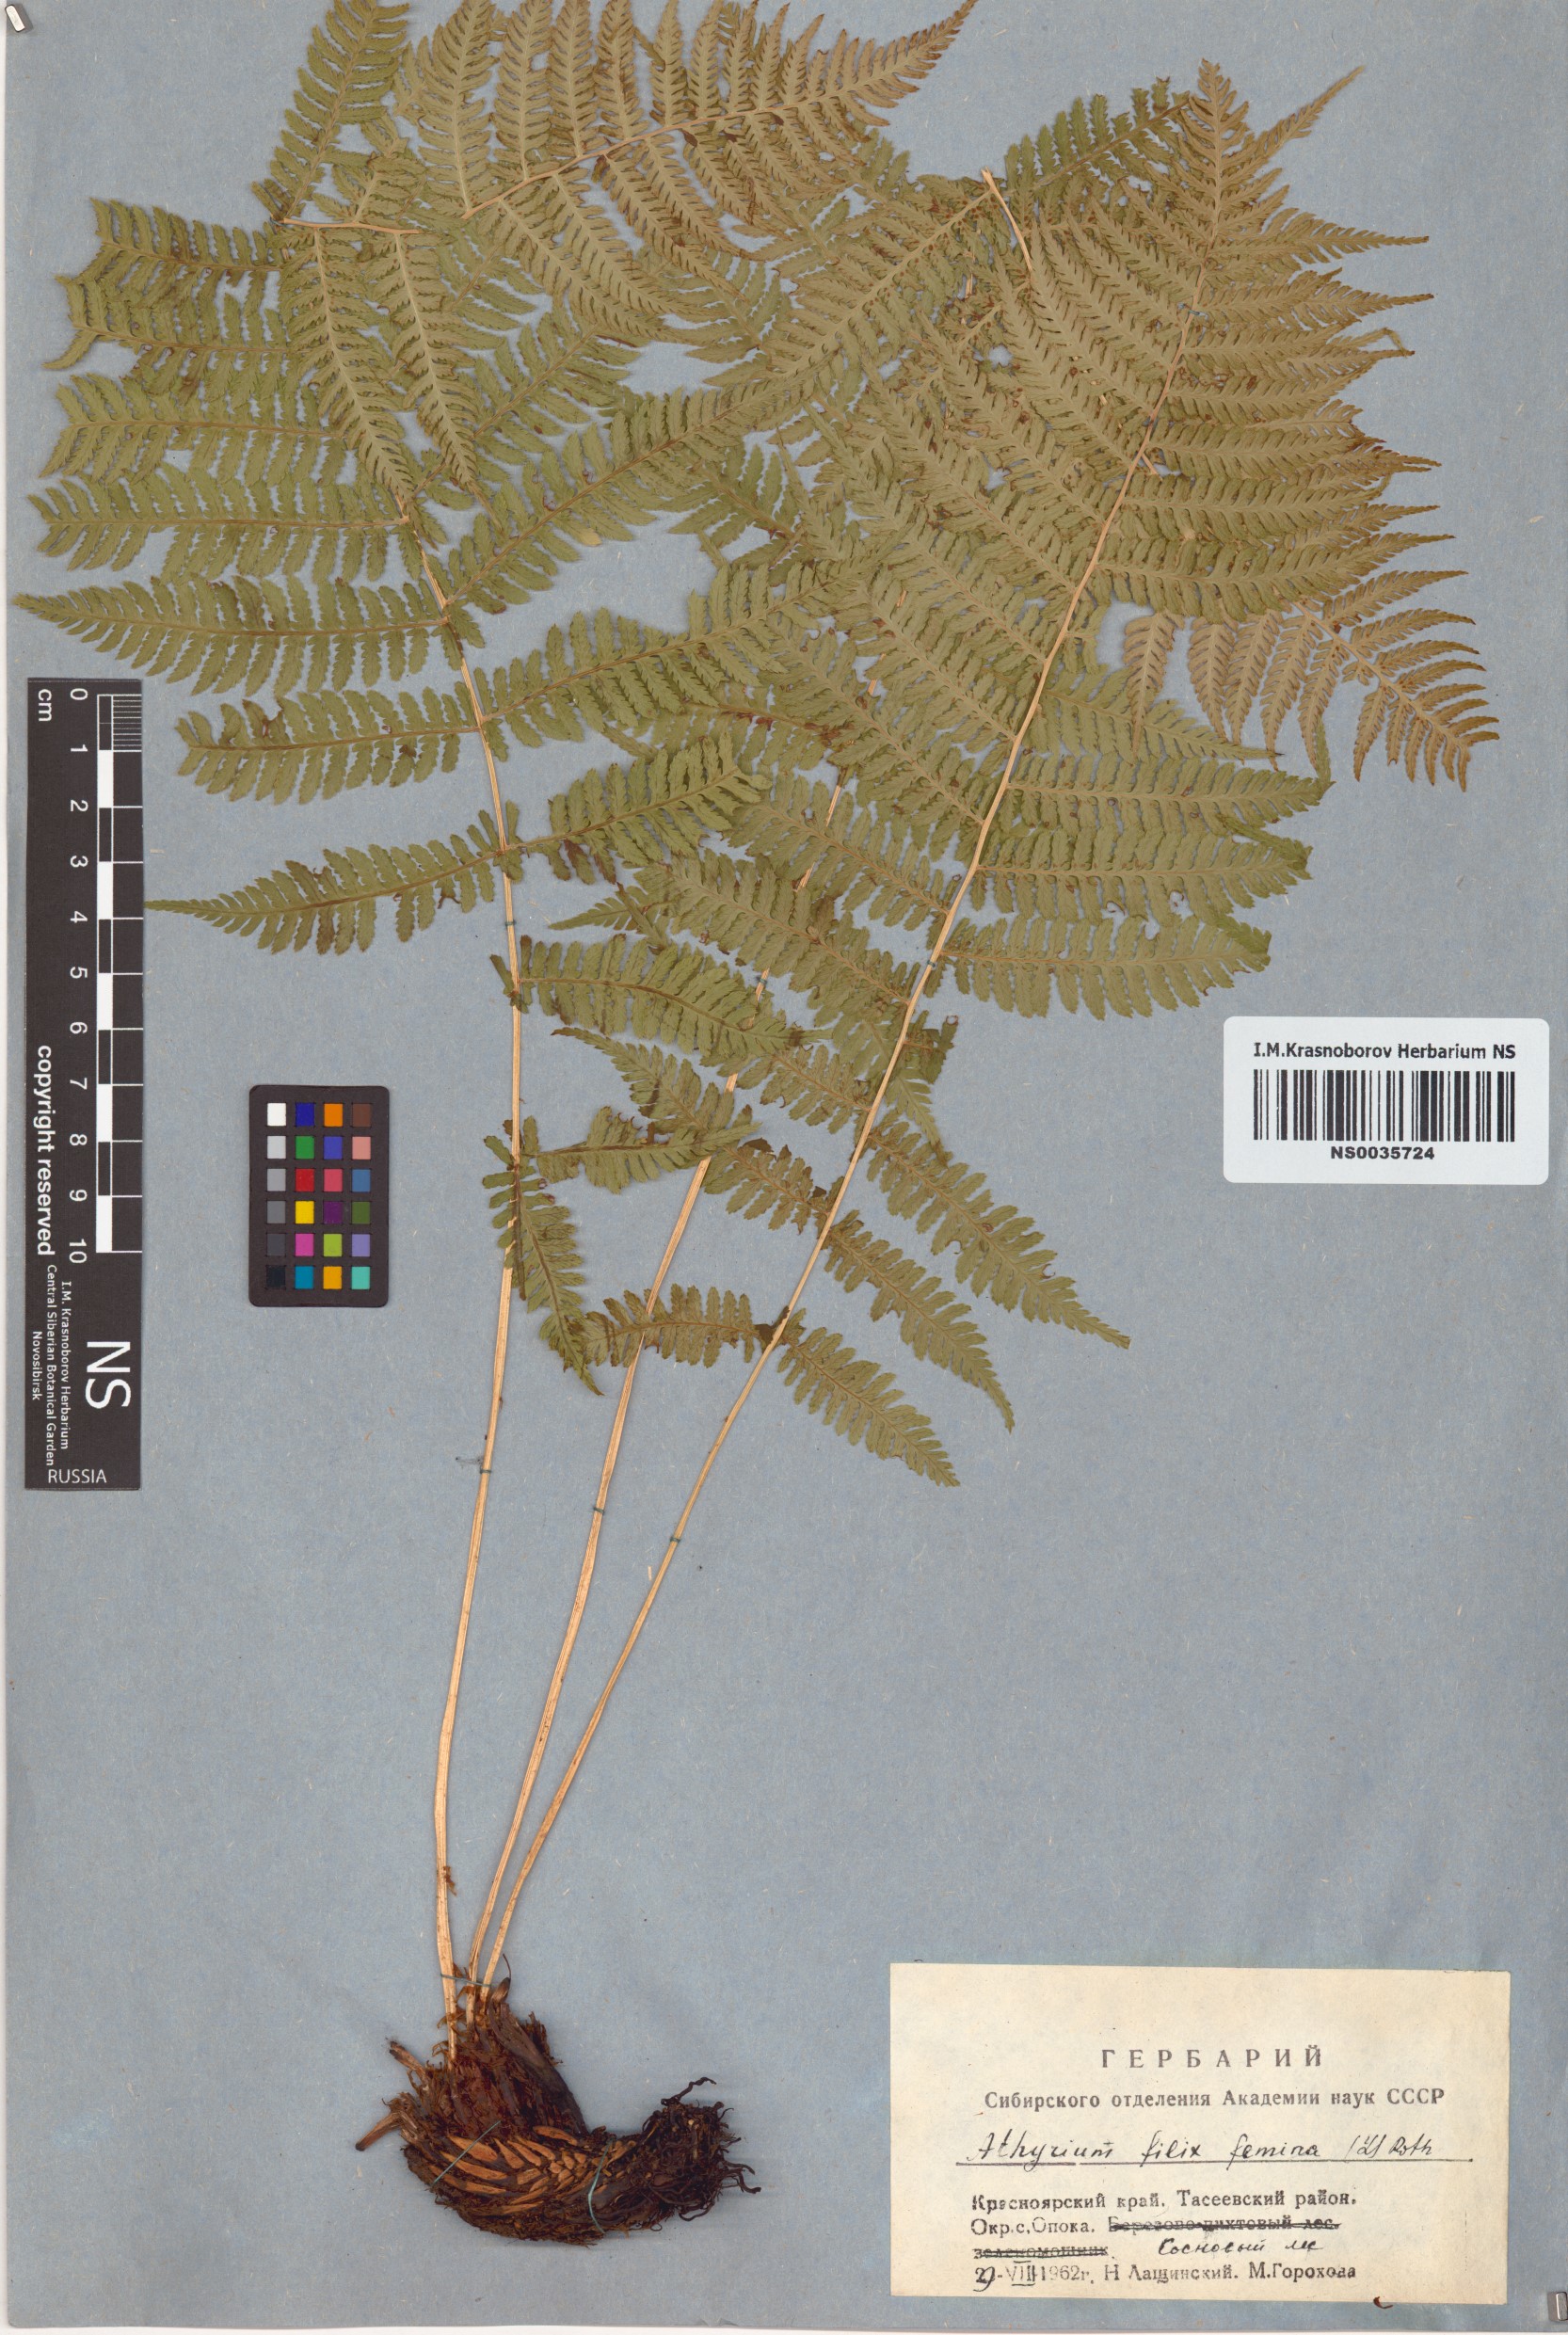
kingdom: Plantae
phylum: Tracheophyta
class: Polypodiopsida
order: Polypodiales
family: Athyriaceae
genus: Athyrium
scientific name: Athyrium filix-femina
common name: Lady fern
